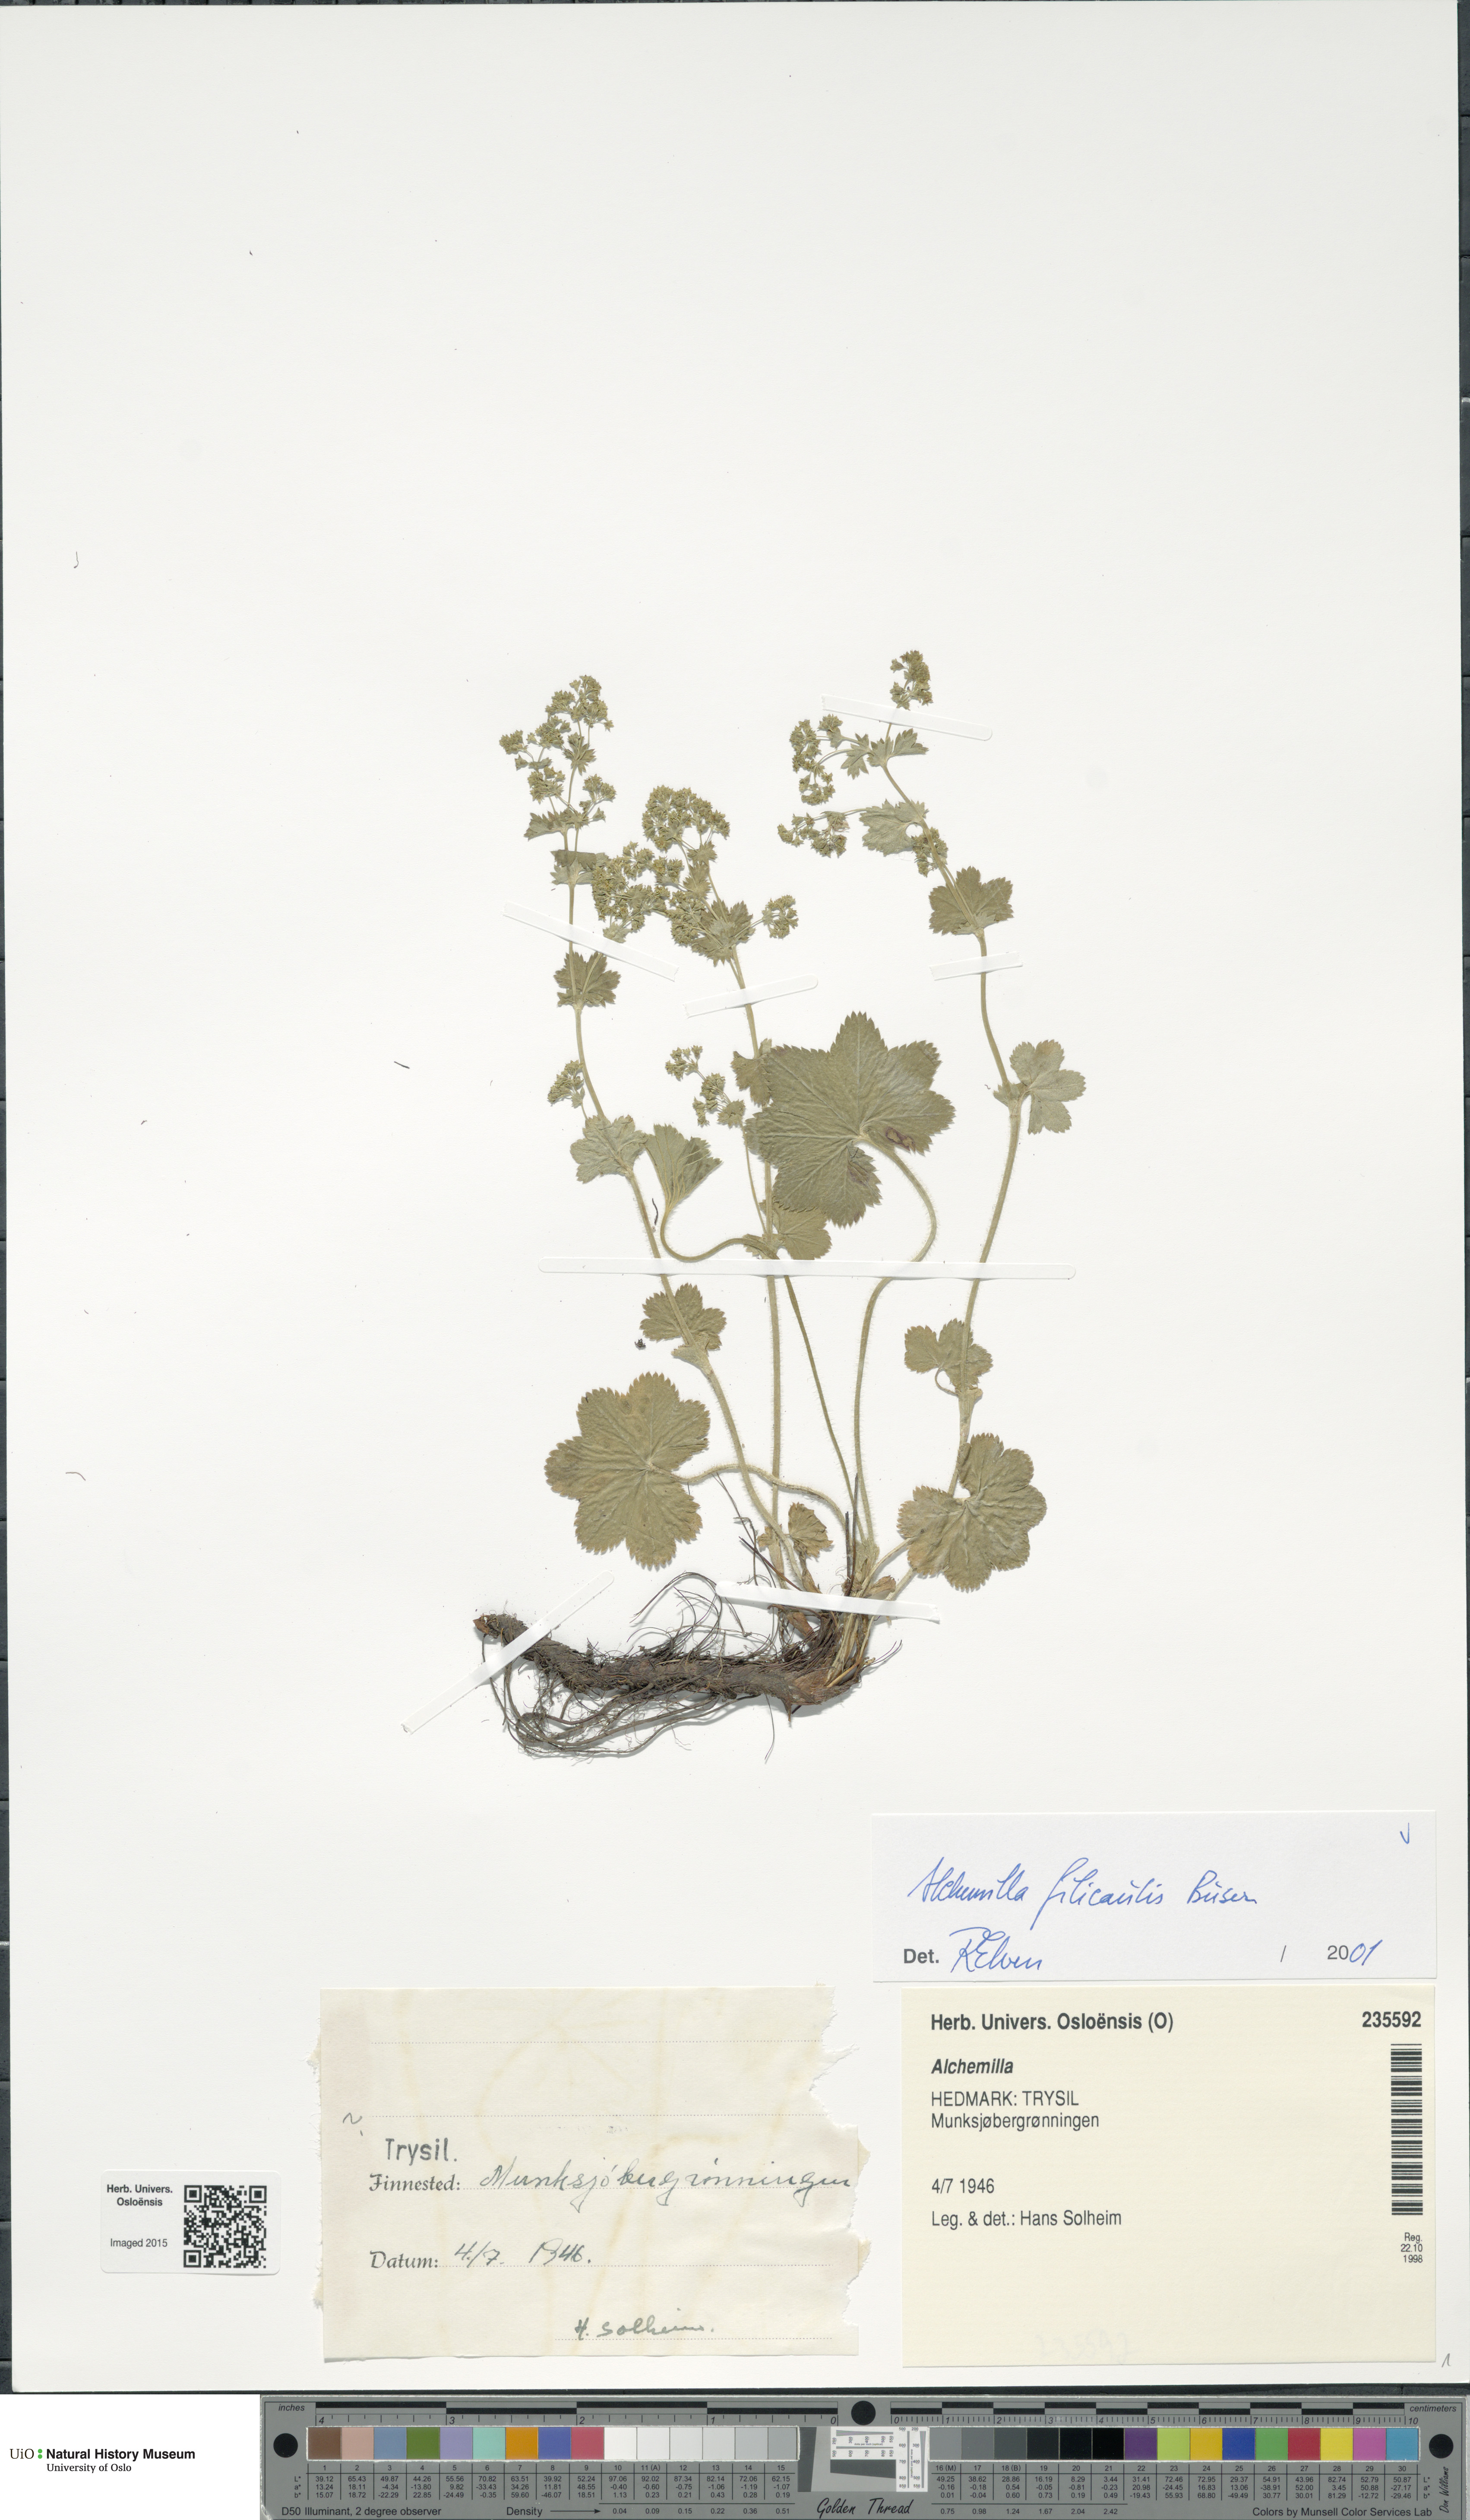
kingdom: Plantae
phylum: Tracheophyta
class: Magnoliopsida
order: Rosales
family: Rosaceae
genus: Alchemilla
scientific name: Alchemilla filicaulis
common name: Hairy lady's-mantle
